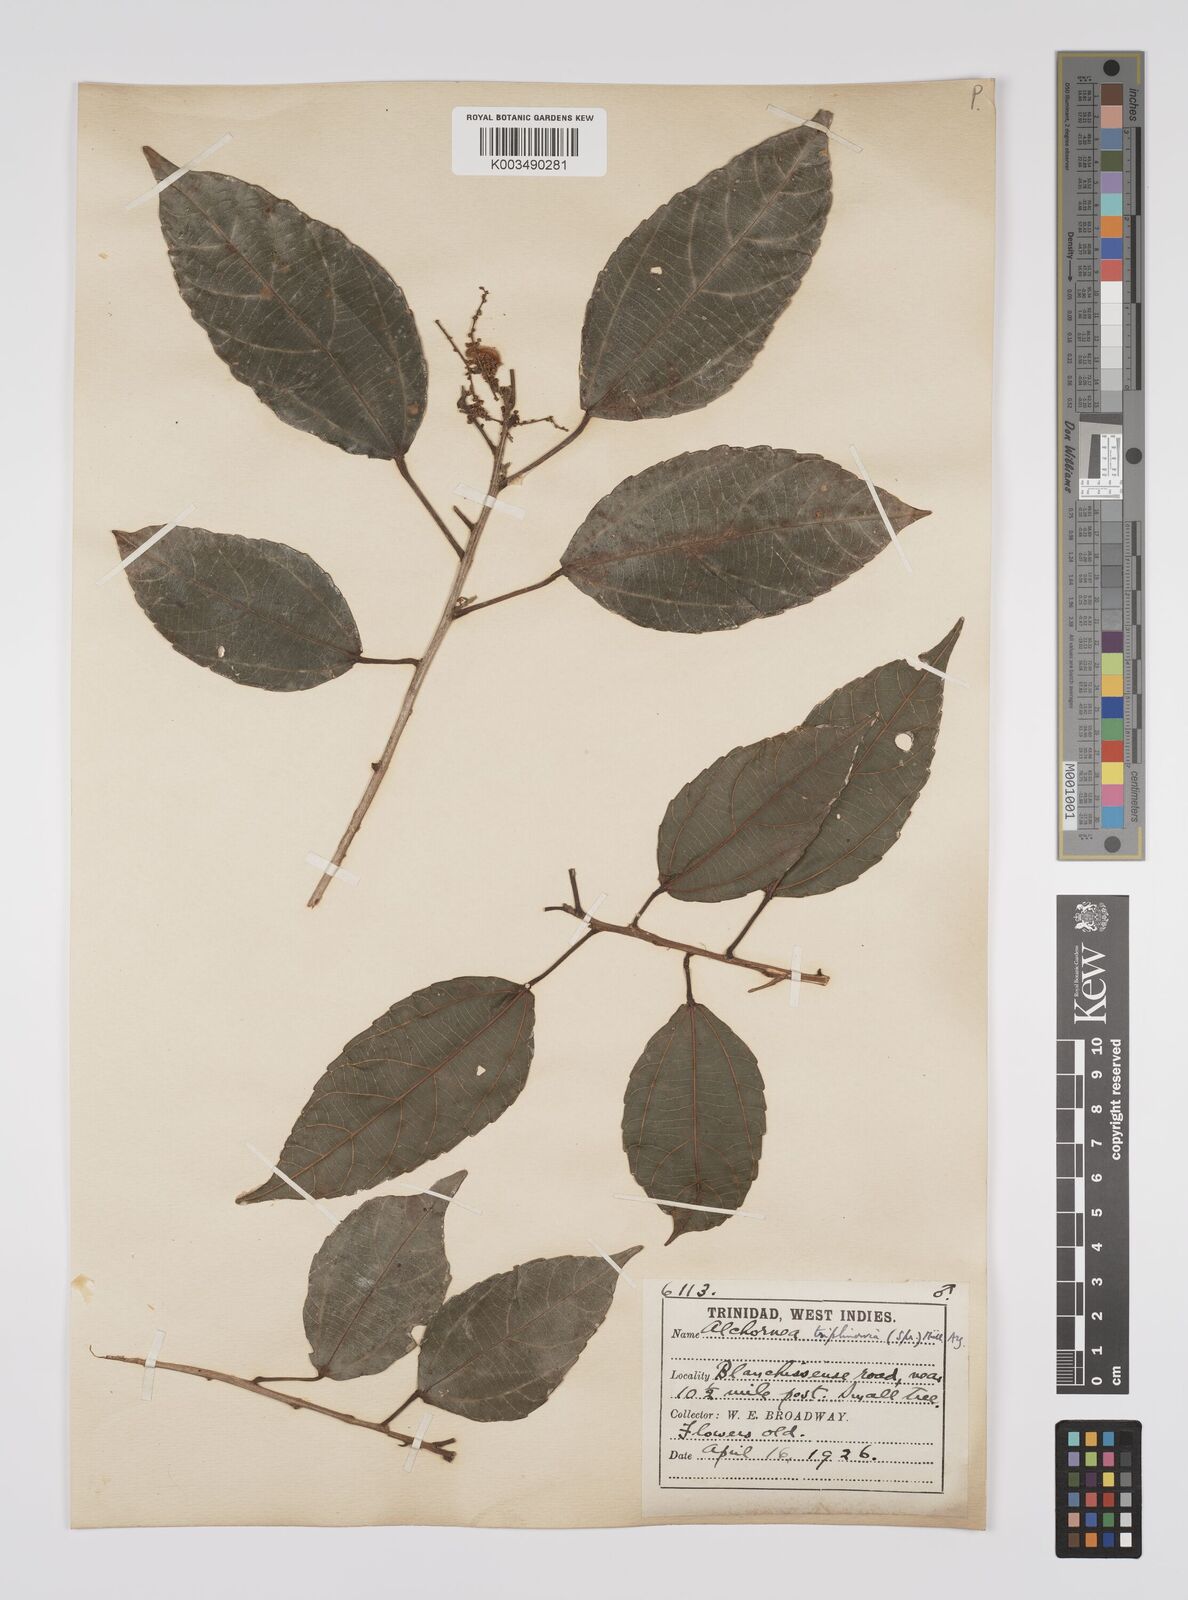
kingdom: Plantae
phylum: Tracheophyta
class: Magnoliopsida
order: Malpighiales
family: Euphorbiaceae
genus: Alchornea
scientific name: Alchornea triplinervia
